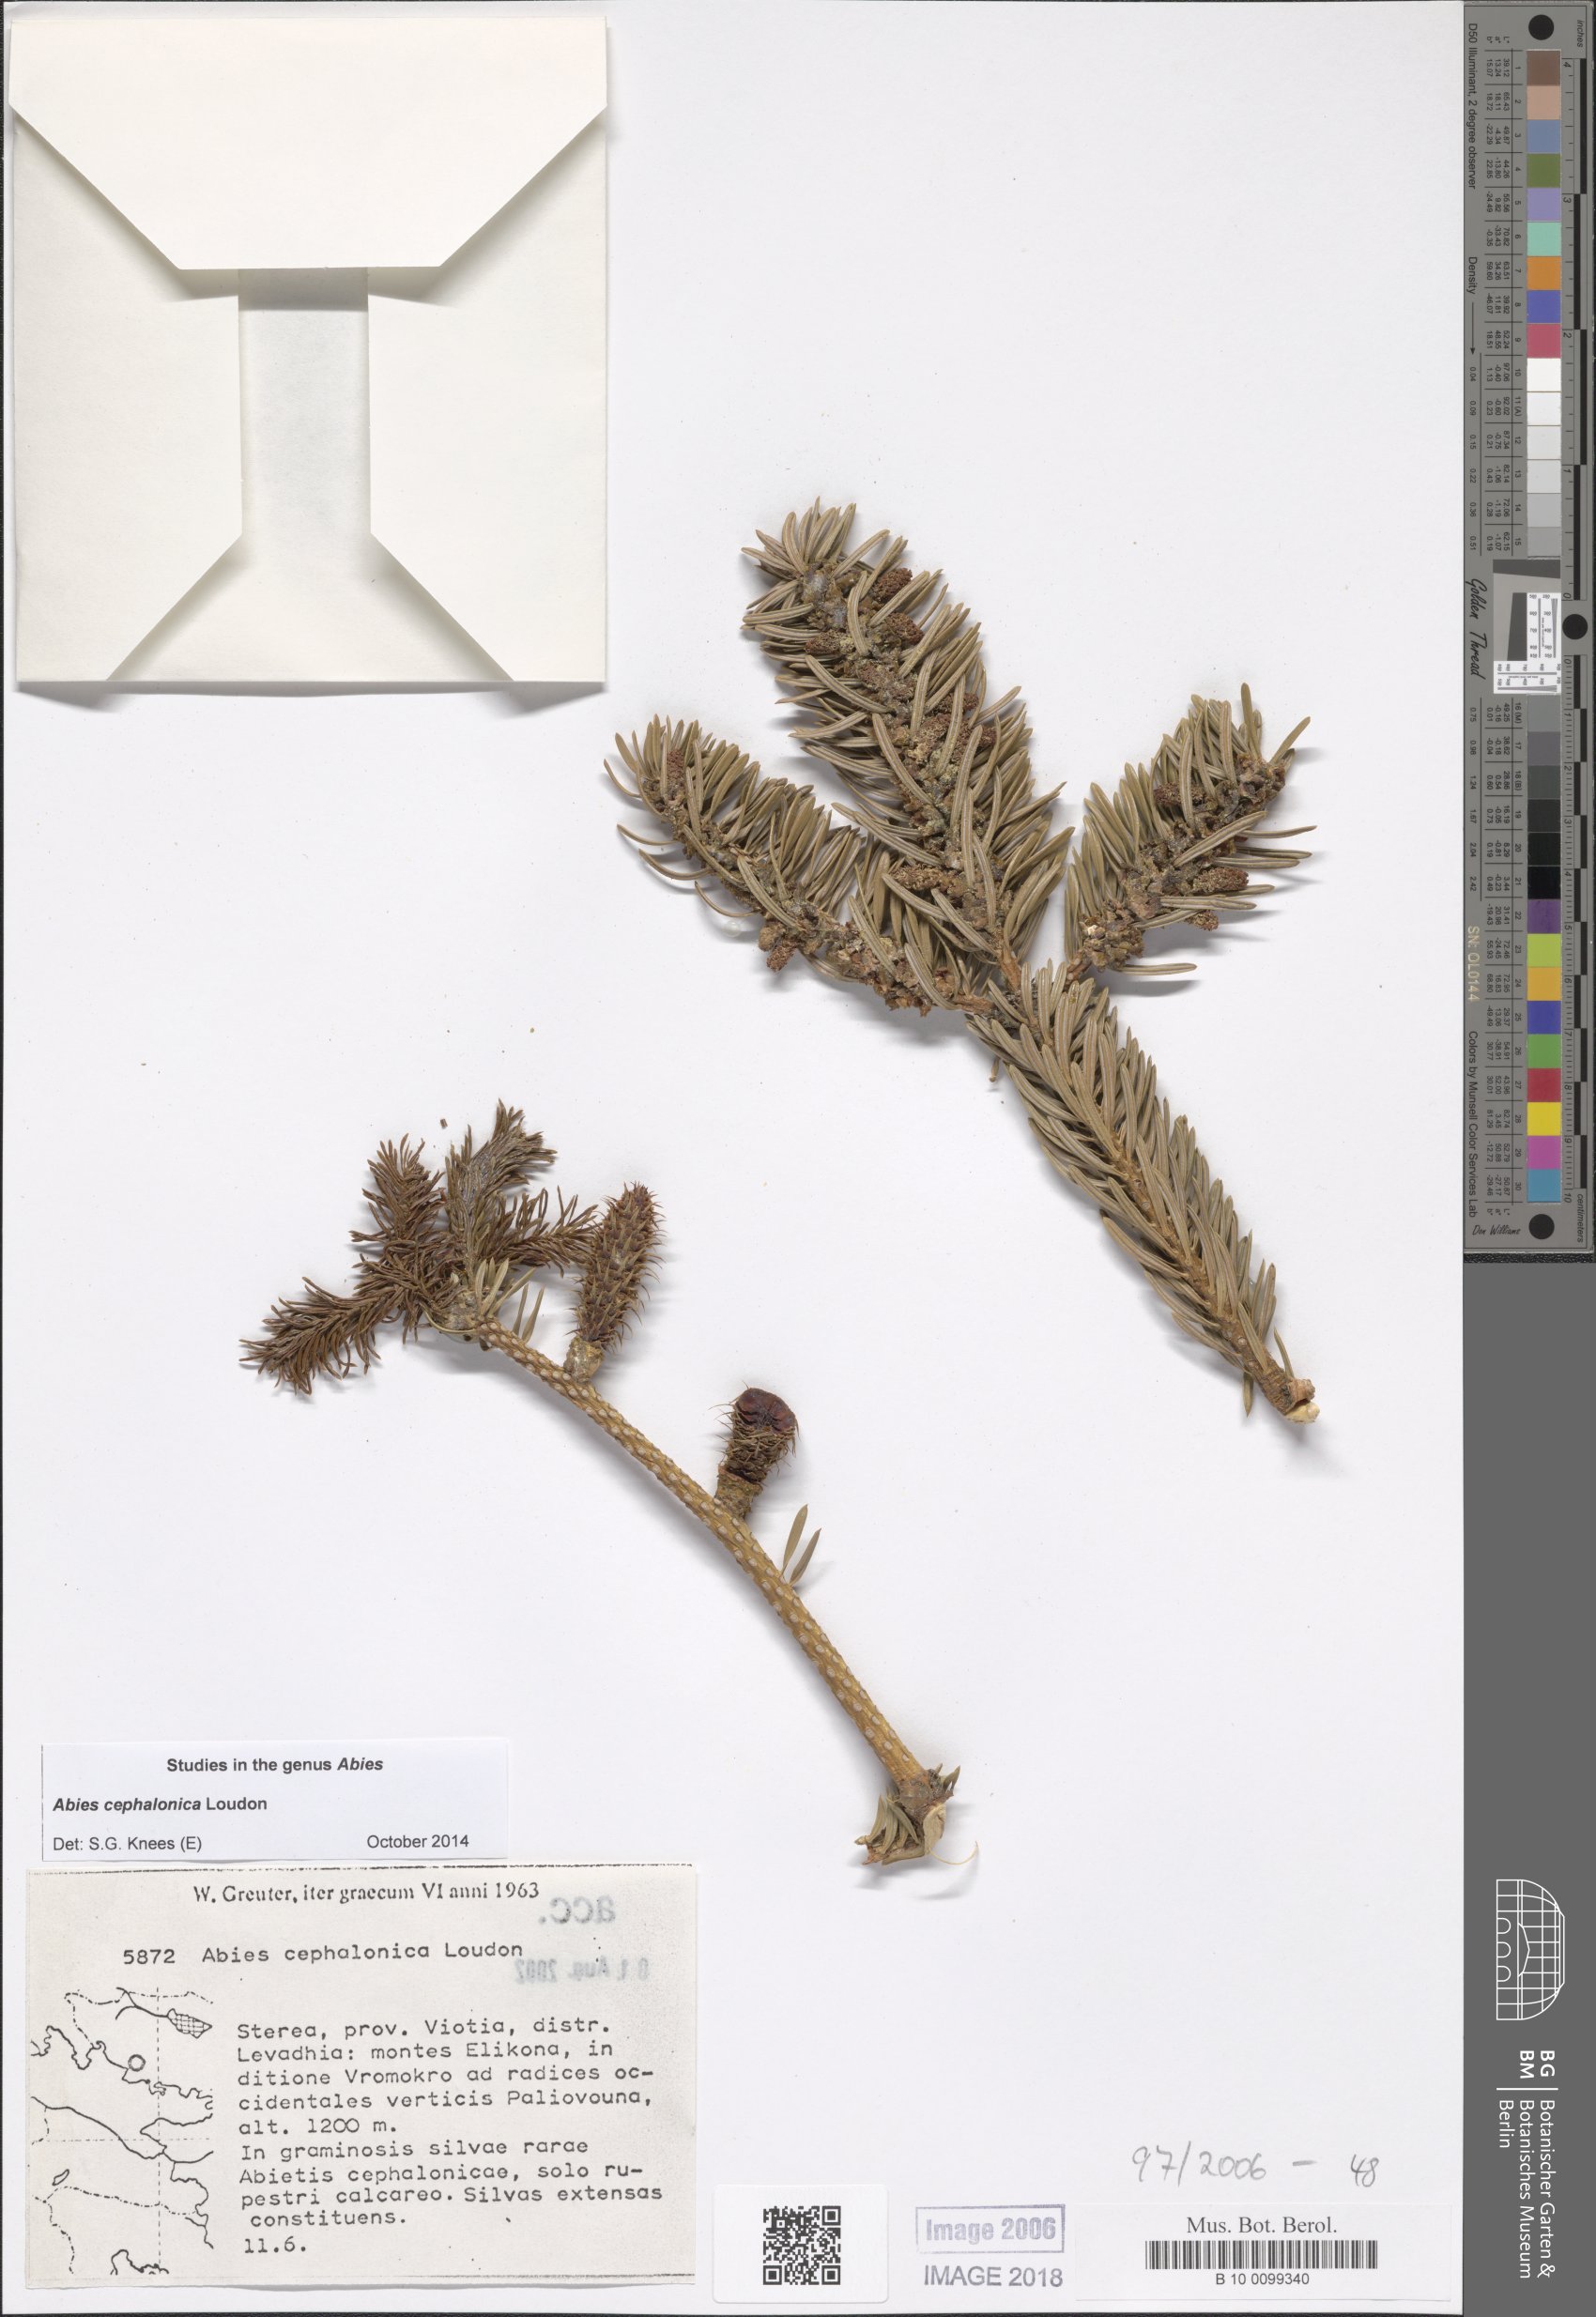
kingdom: Plantae
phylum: Tracheophyta
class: Pinopsida
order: Pinales
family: Pinaceae
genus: Abies
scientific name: Abies cephalonica
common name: Greek fir
